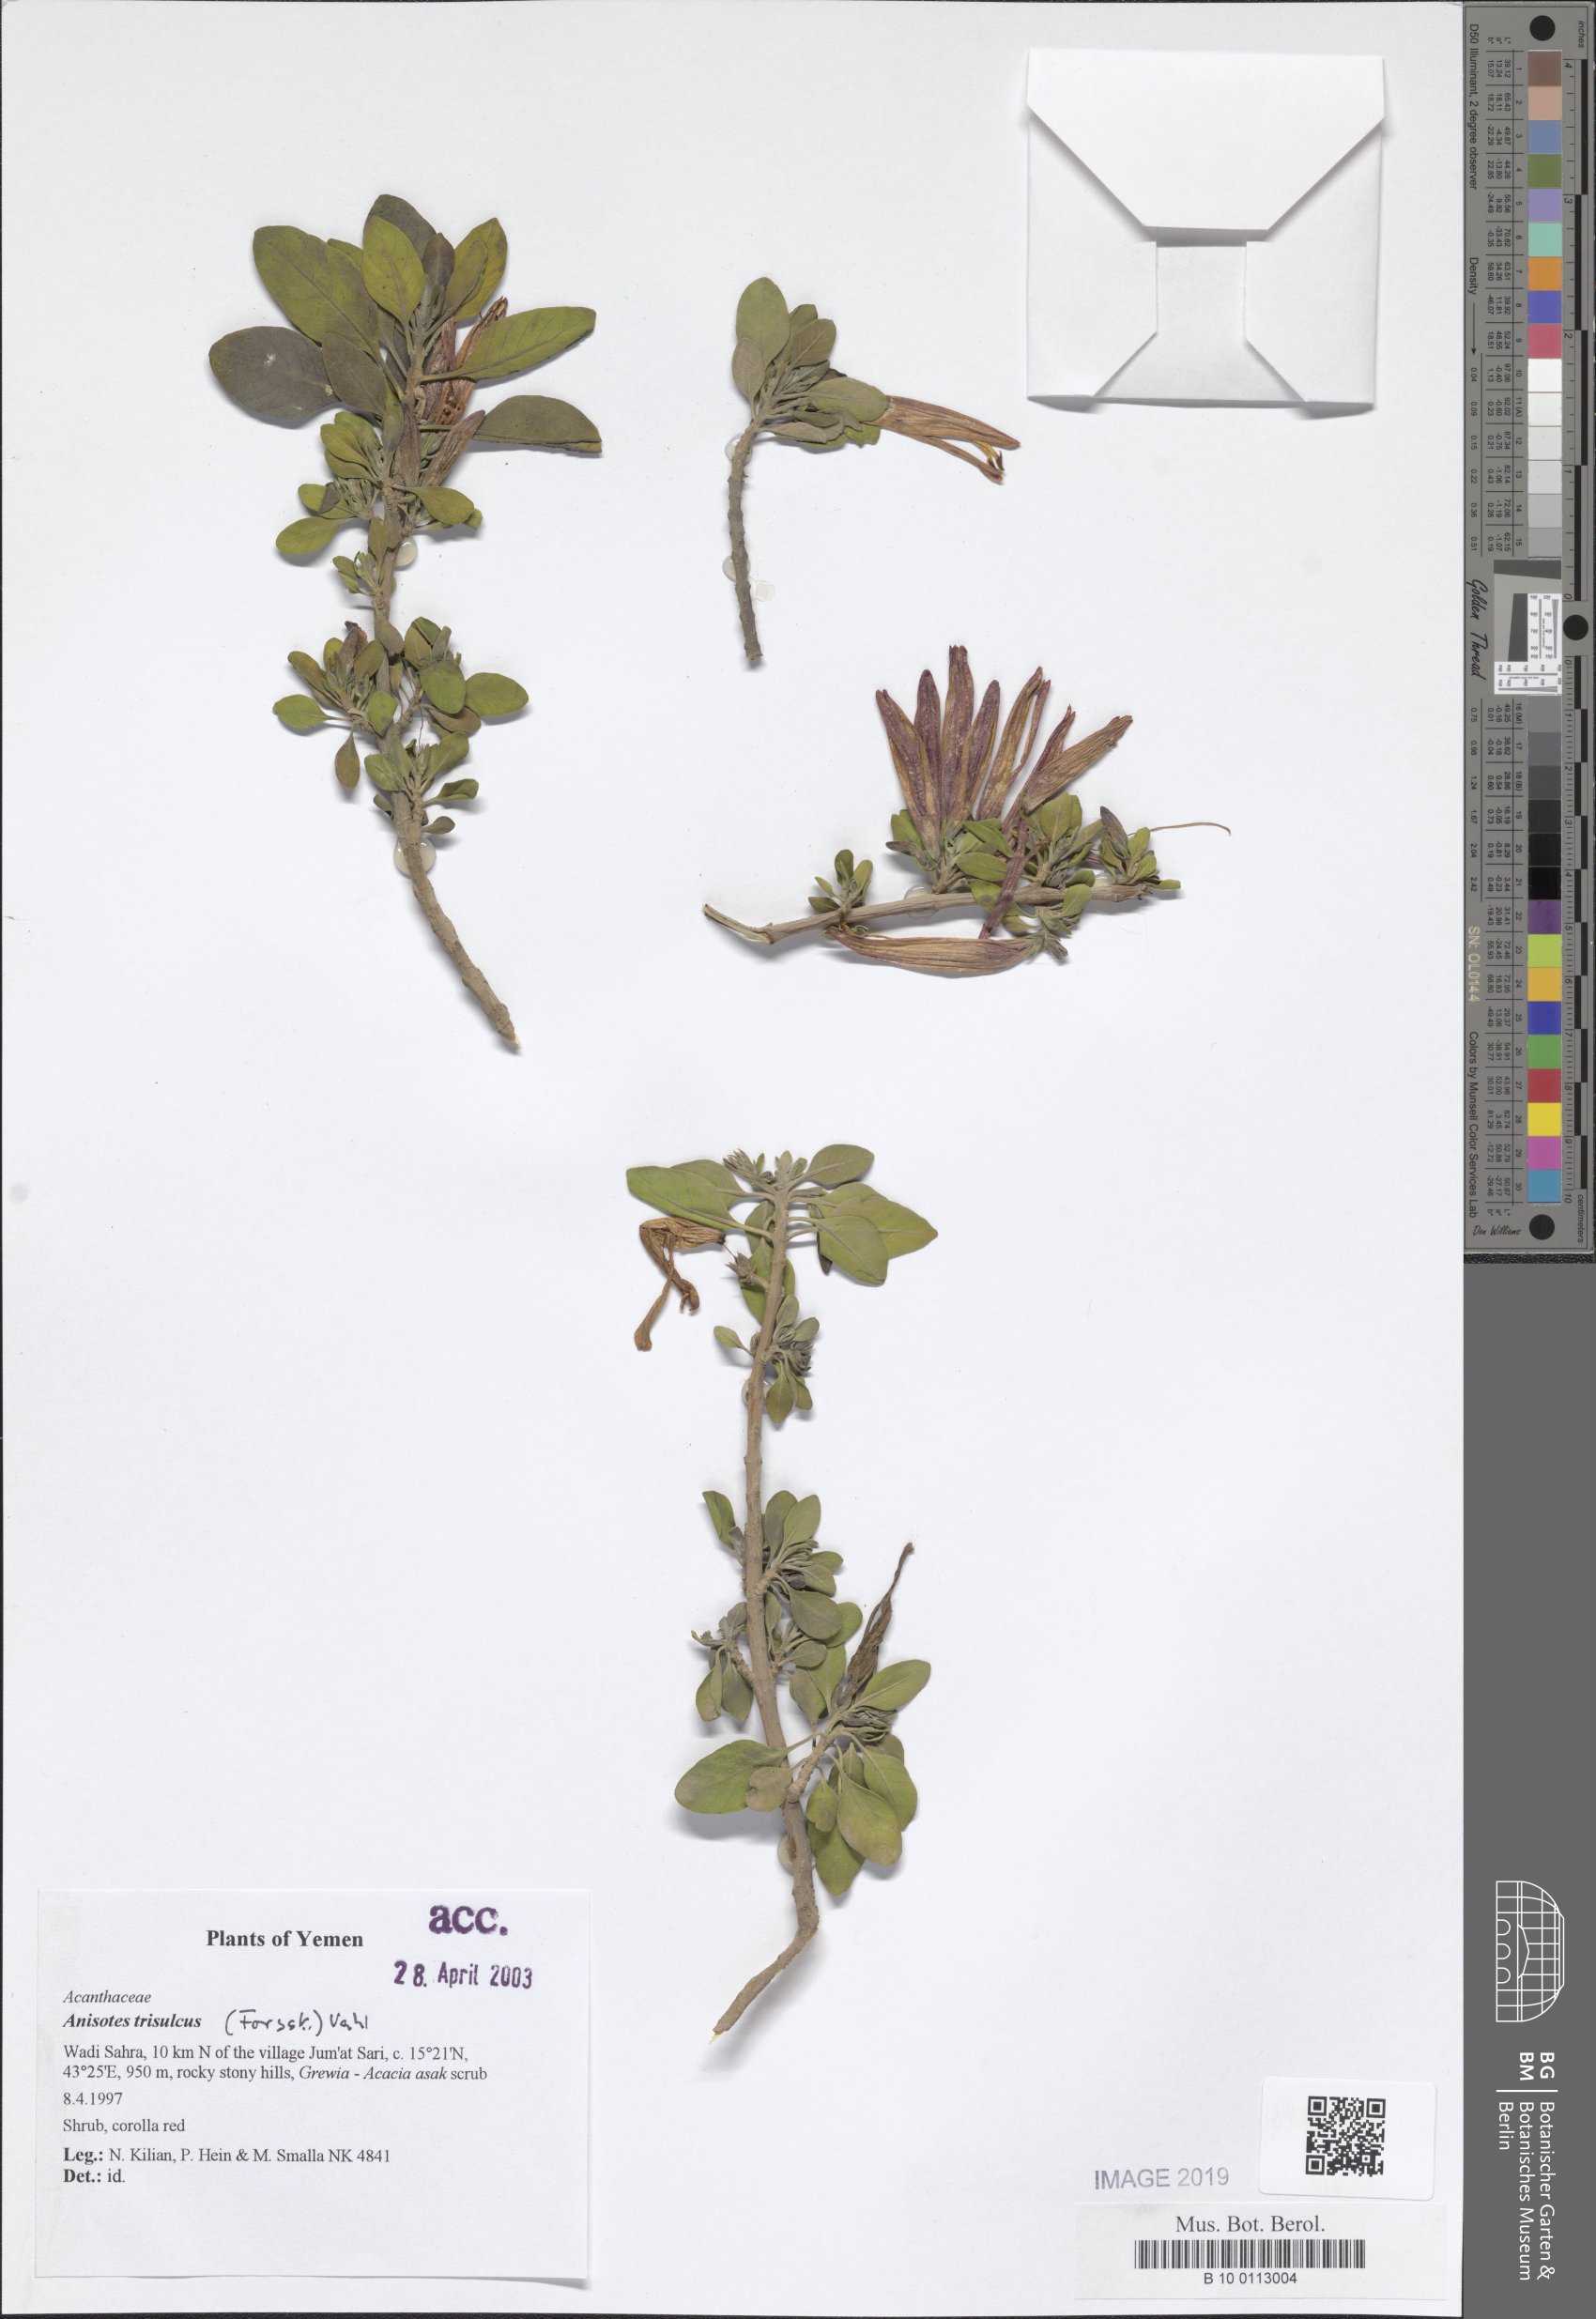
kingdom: Plantae
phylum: Tracheophyta
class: Magnoliopsida
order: Lamiales
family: Acanthaceae
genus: Anisotes
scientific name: Anisotes trisulcus
